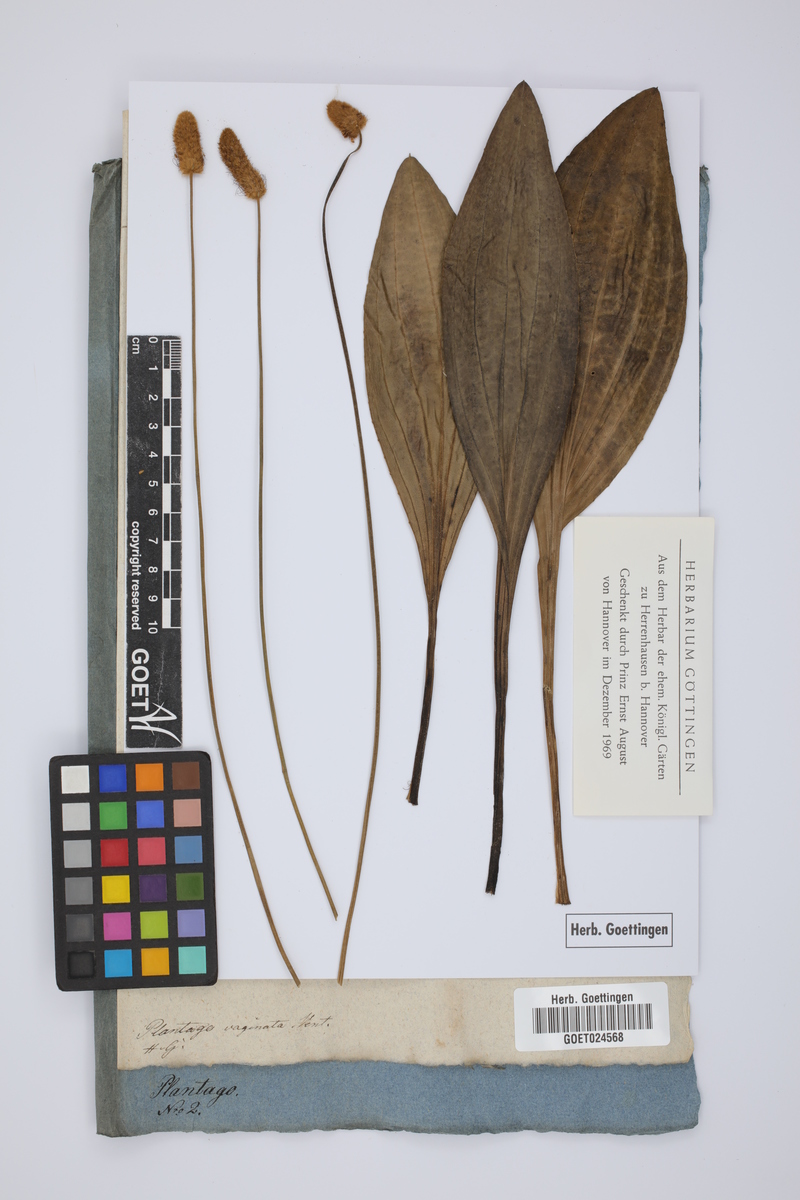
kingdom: Plantae
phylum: Tracheophyta
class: Magnoliopsida
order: Lamiales
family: Plantaginaceae
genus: Plantago
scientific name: Plantago lagopus
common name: Hare-foot plantain
